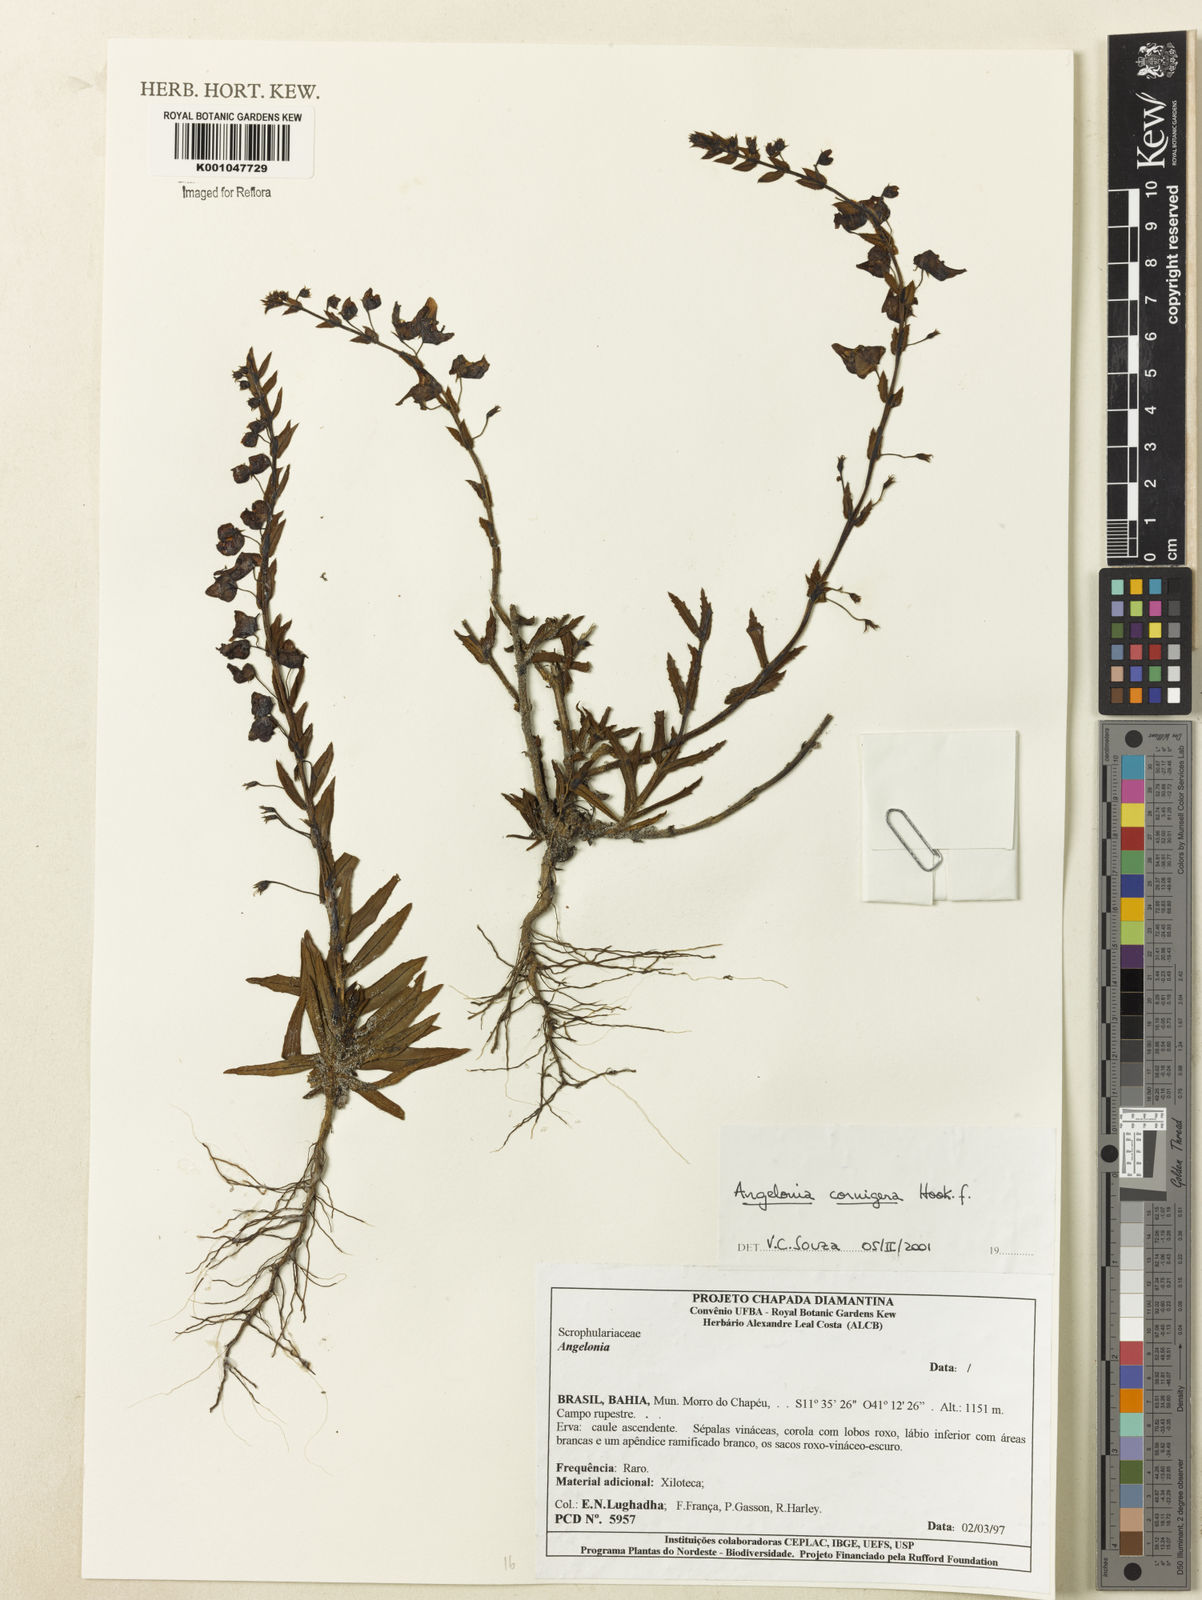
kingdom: Plantae
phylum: Tracheophyta
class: Magnoliopsida
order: Lamiales
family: Plantaginaceae
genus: Angelonia
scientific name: Angelonia cornigera
